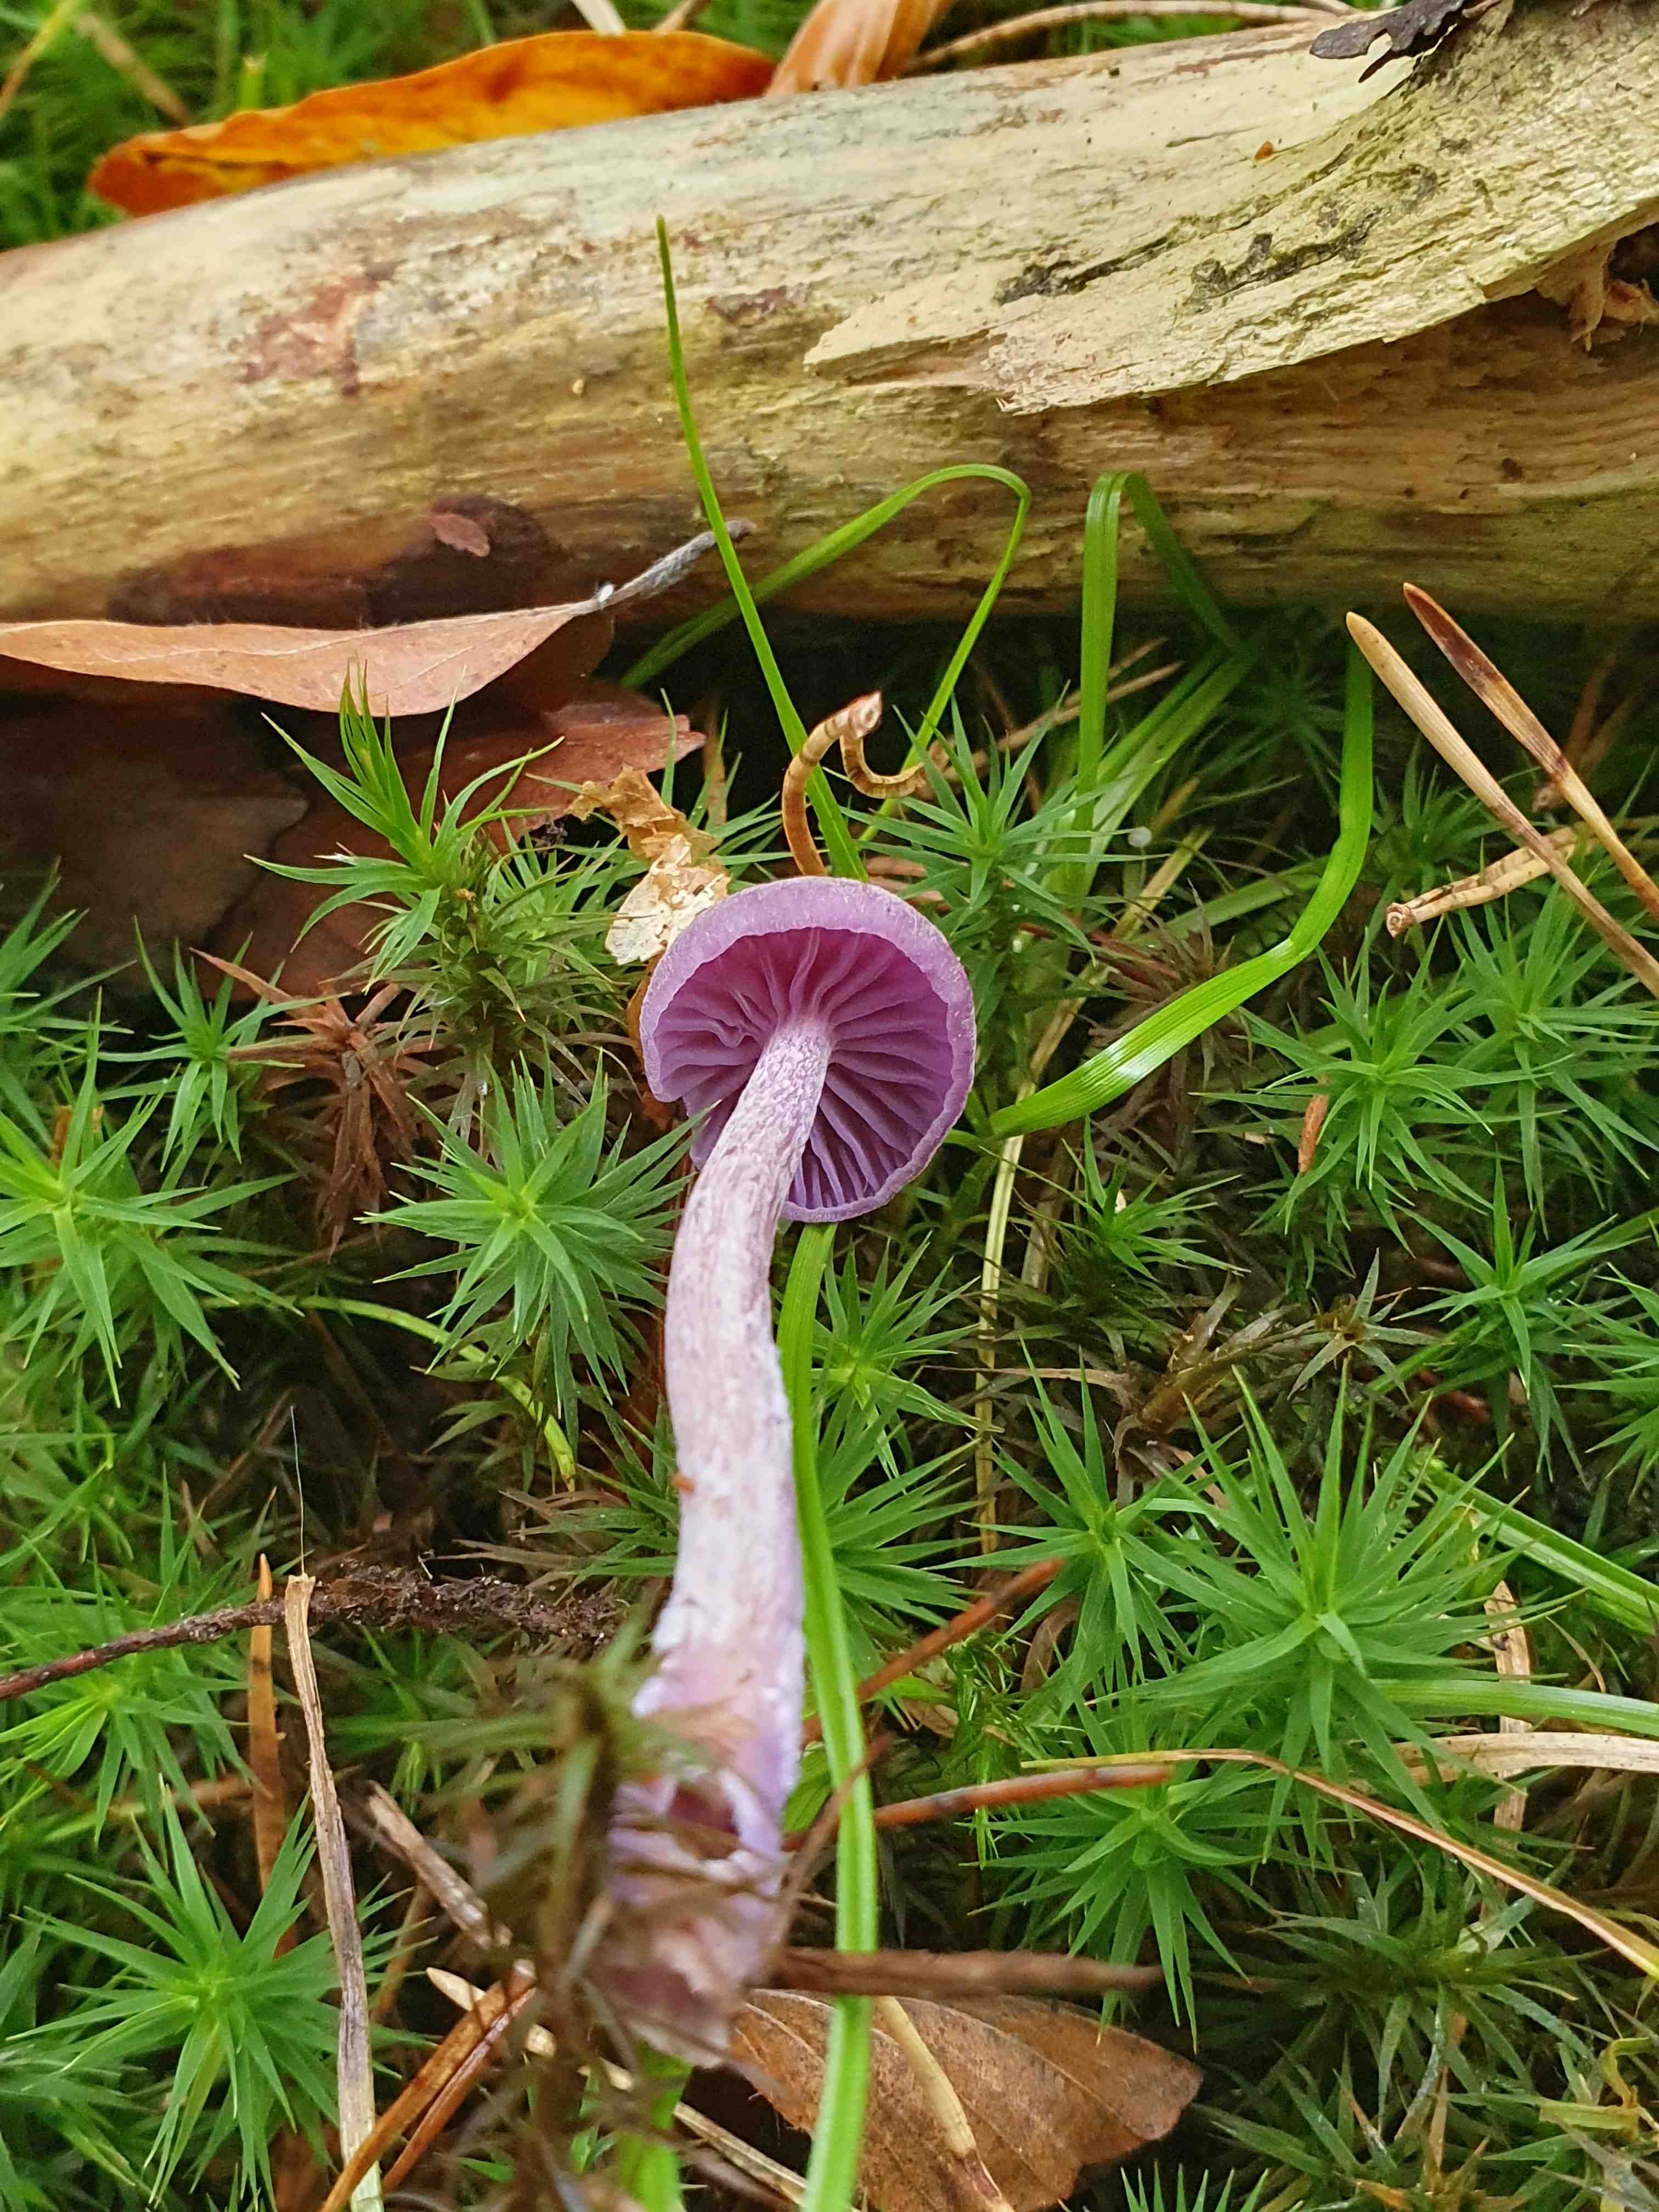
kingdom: Fungi
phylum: Basidiomycota
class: Agaricomycetes
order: Agaricales
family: Hydnangiaceae
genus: Laccaria
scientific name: Laccaria amethystina
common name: violet ametysthat
